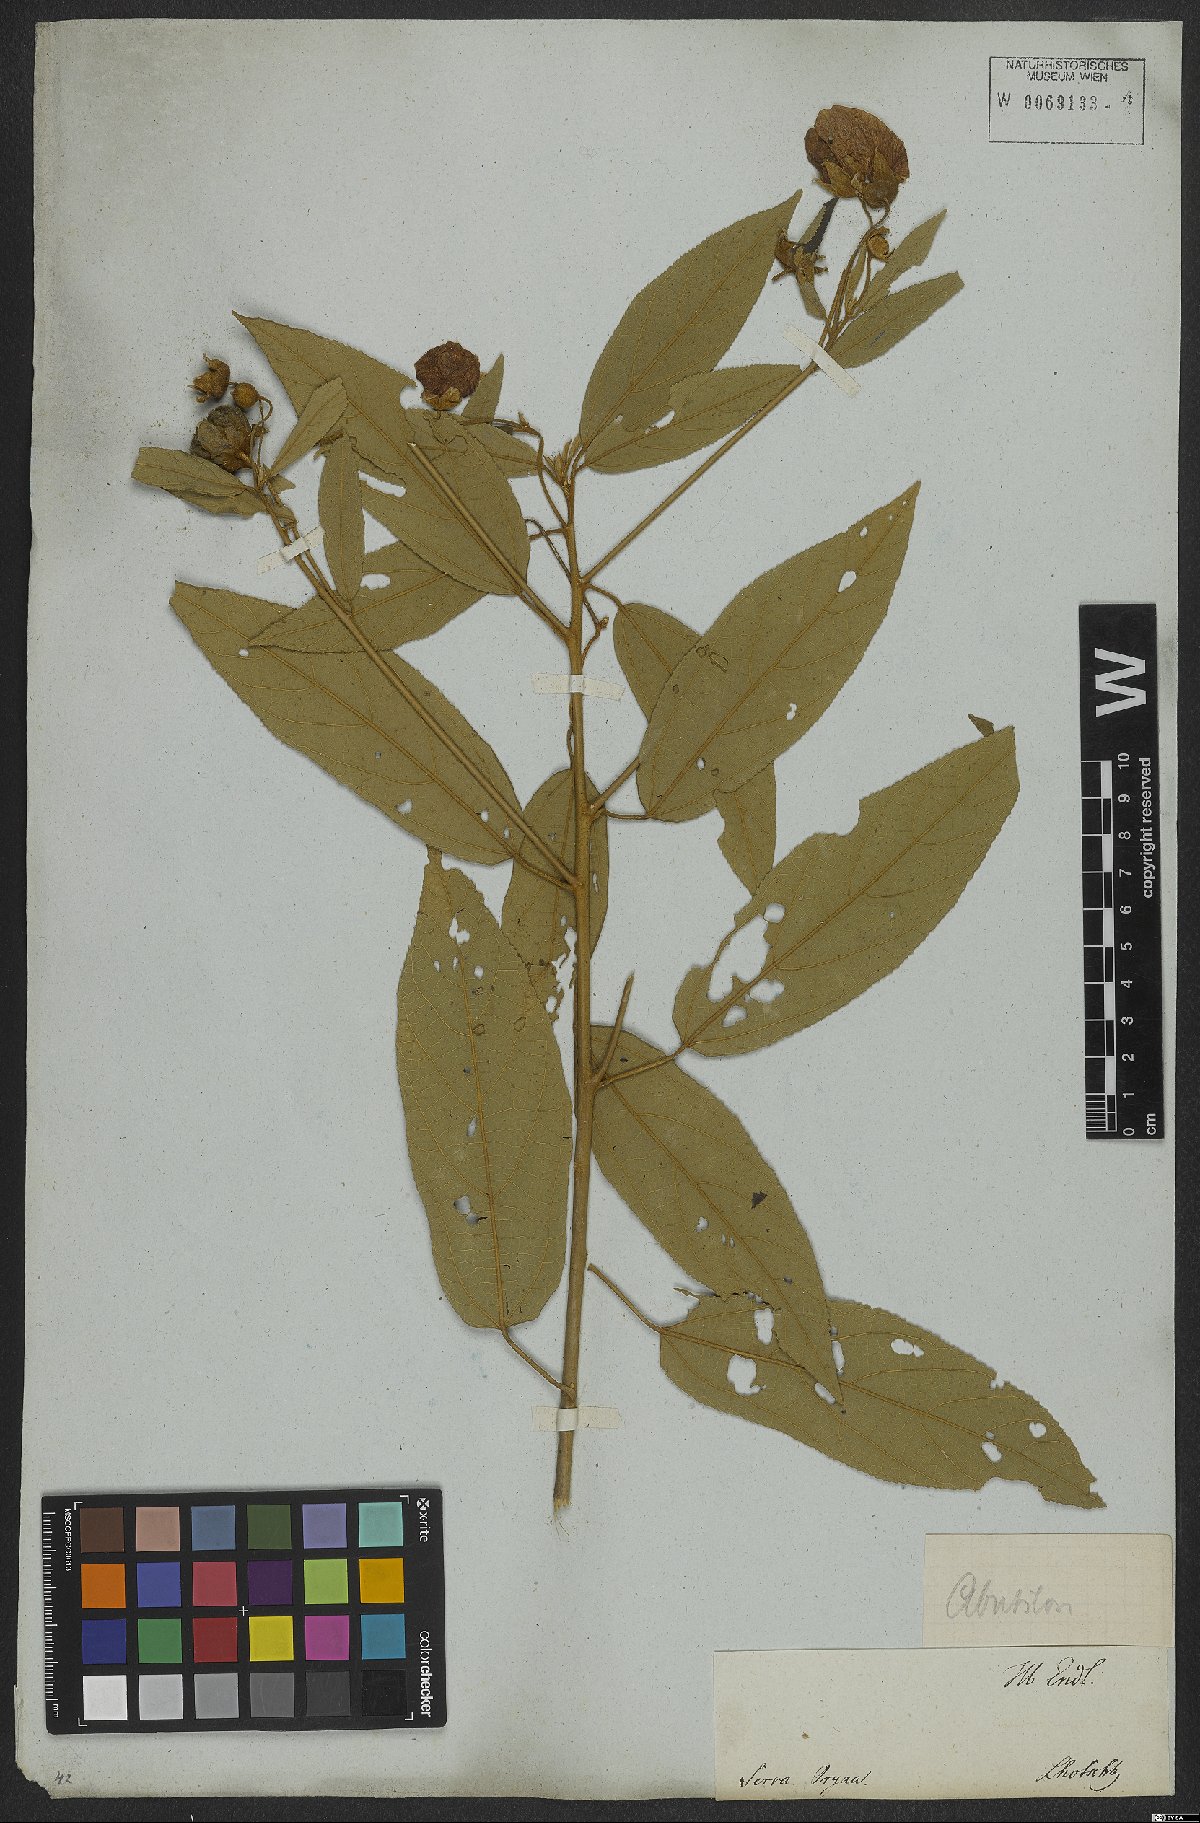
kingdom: Plantae
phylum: Tracheophyta
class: Magnoliopsida
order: Malvales
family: Malvaceae
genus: Callianthe
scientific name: Callianthe rufinerva
